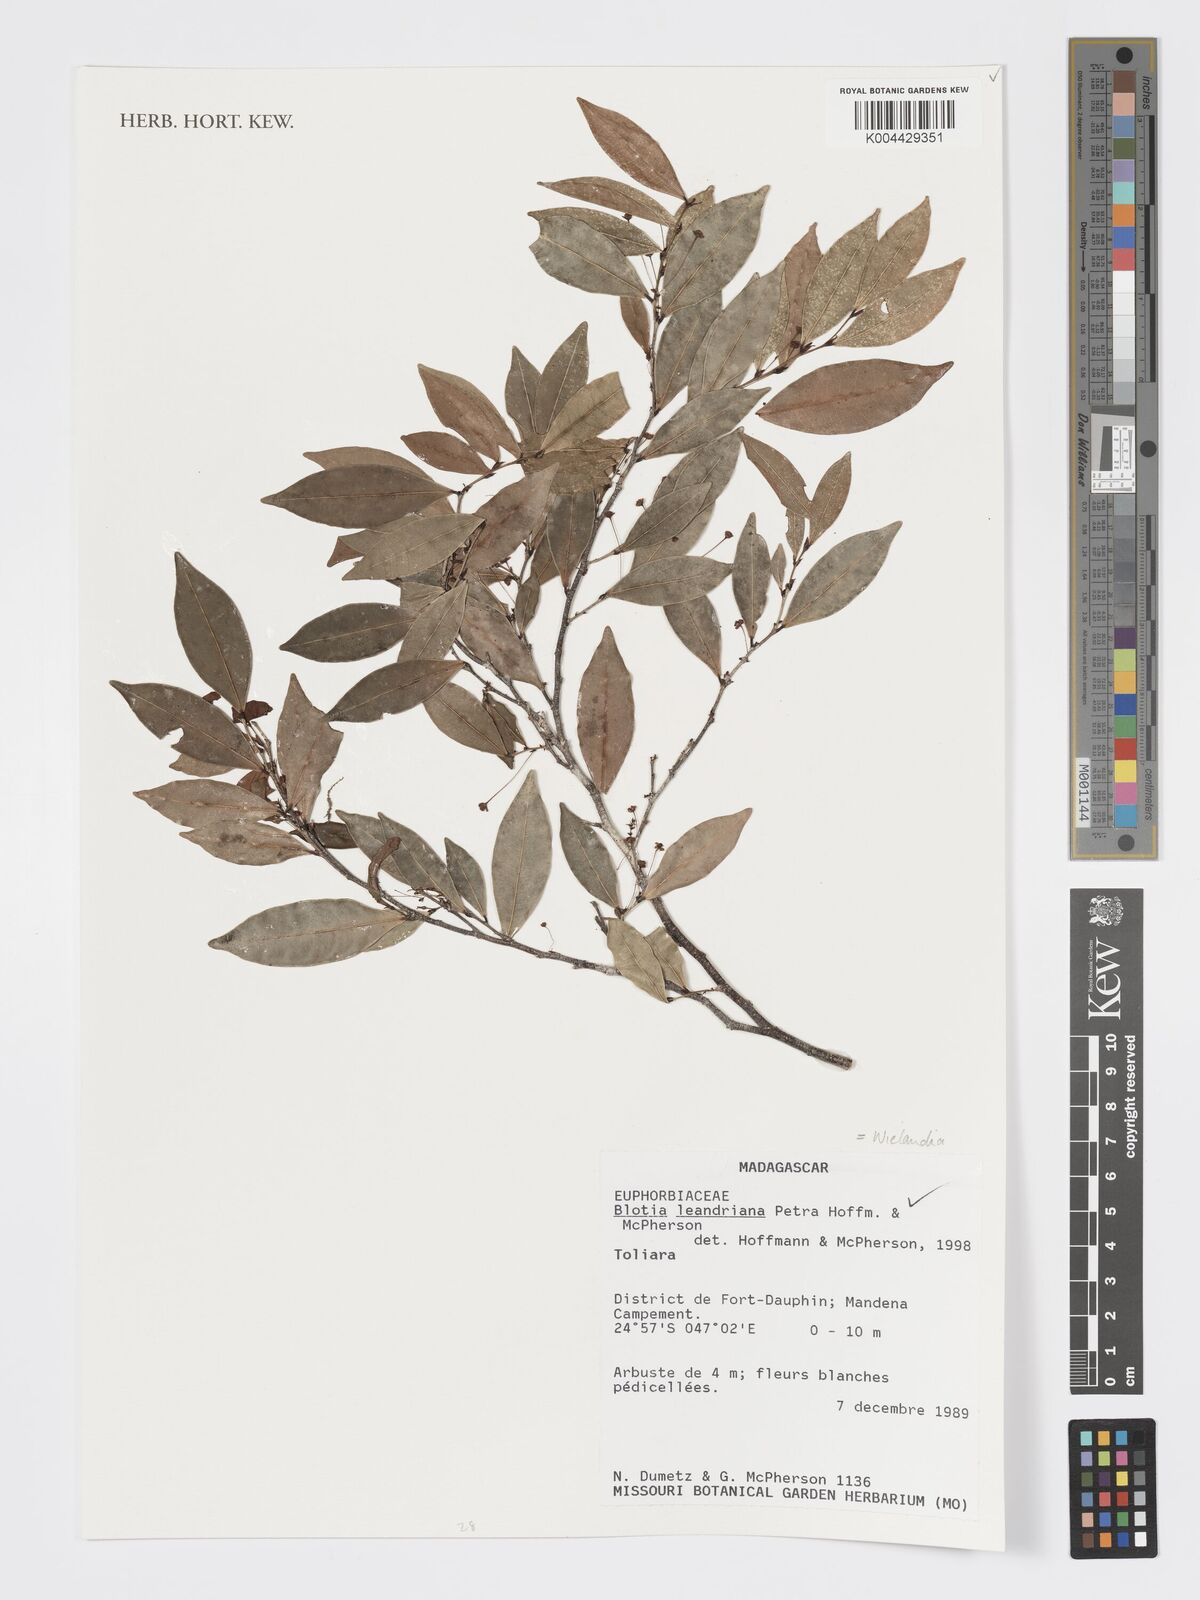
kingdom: Plantae
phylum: Tracheophyta
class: Magnoliopsida
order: Malpighiales
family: Phyllanthaceae
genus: Wielandia
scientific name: Wielandia leandriana
